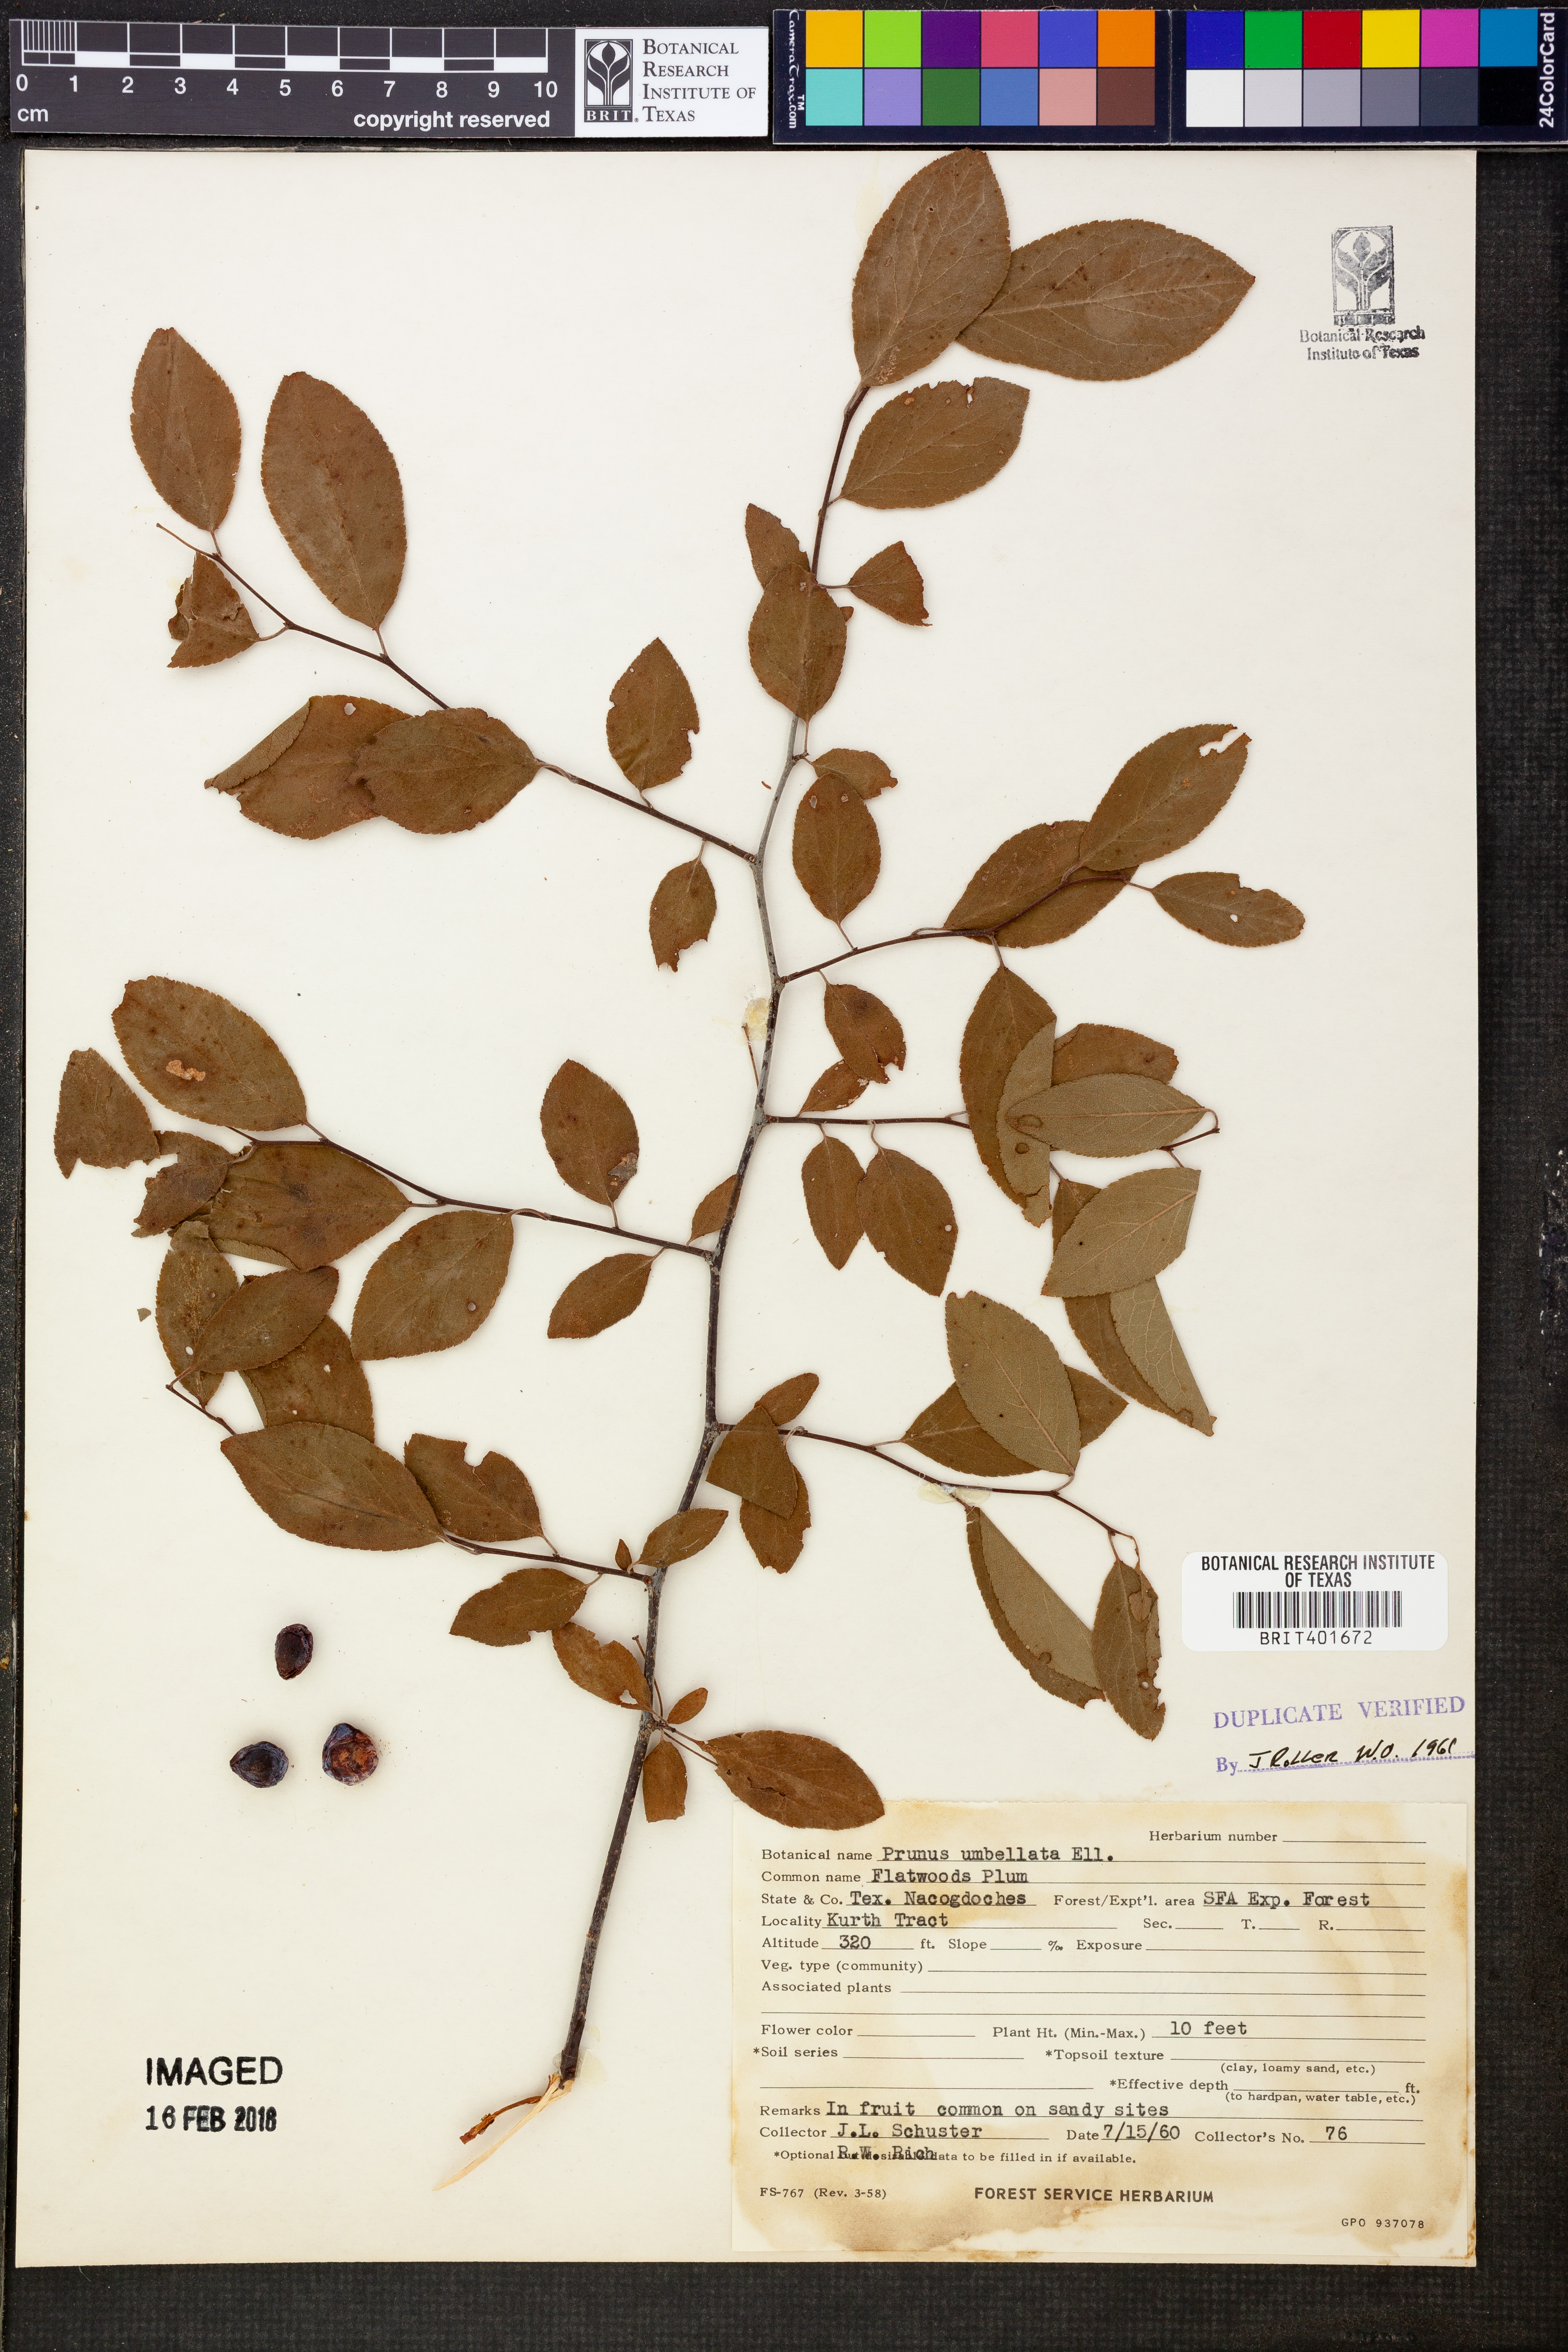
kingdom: Plantae
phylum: Tracheophyta
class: Magnoliopsida
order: Rosales
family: Rosaceae
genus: Prunus
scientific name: Prunus umbellata
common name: Allegheny plum
